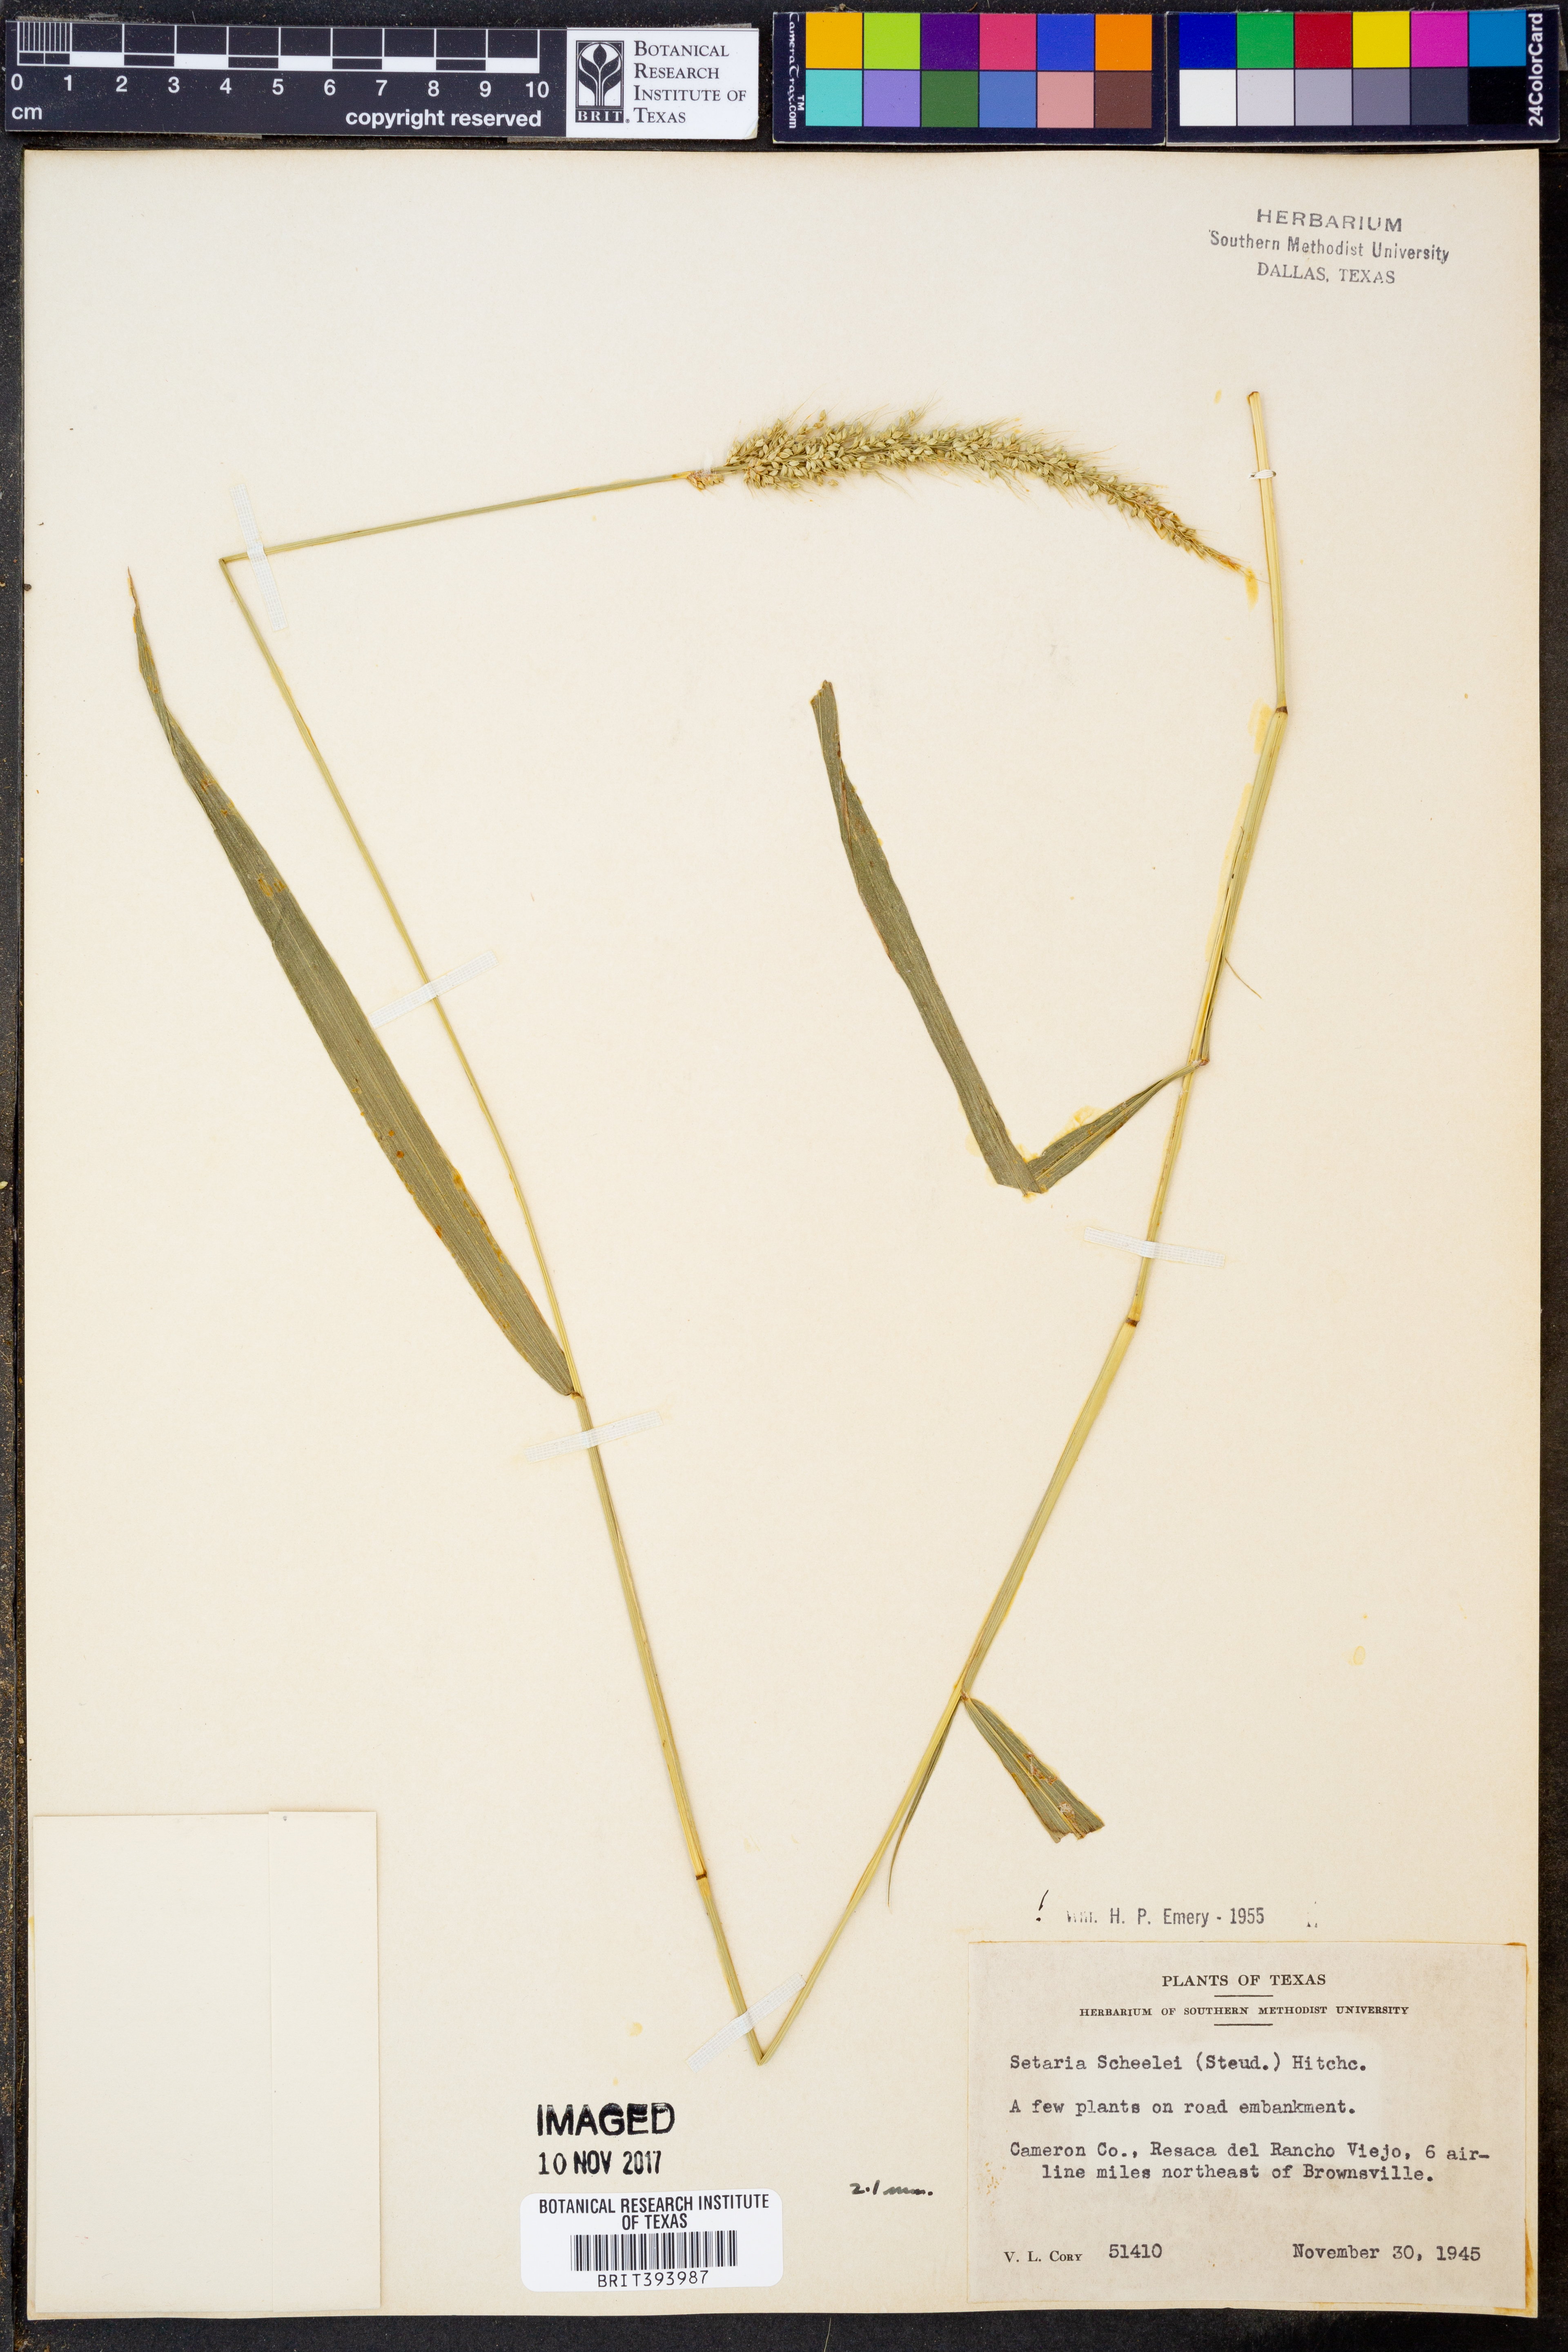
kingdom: Plantae
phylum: Tracheophyta
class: Liliopsida
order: Poales
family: Poaceae
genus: Setaria
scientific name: Setaria scheelei
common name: Southwestern bristle grass
